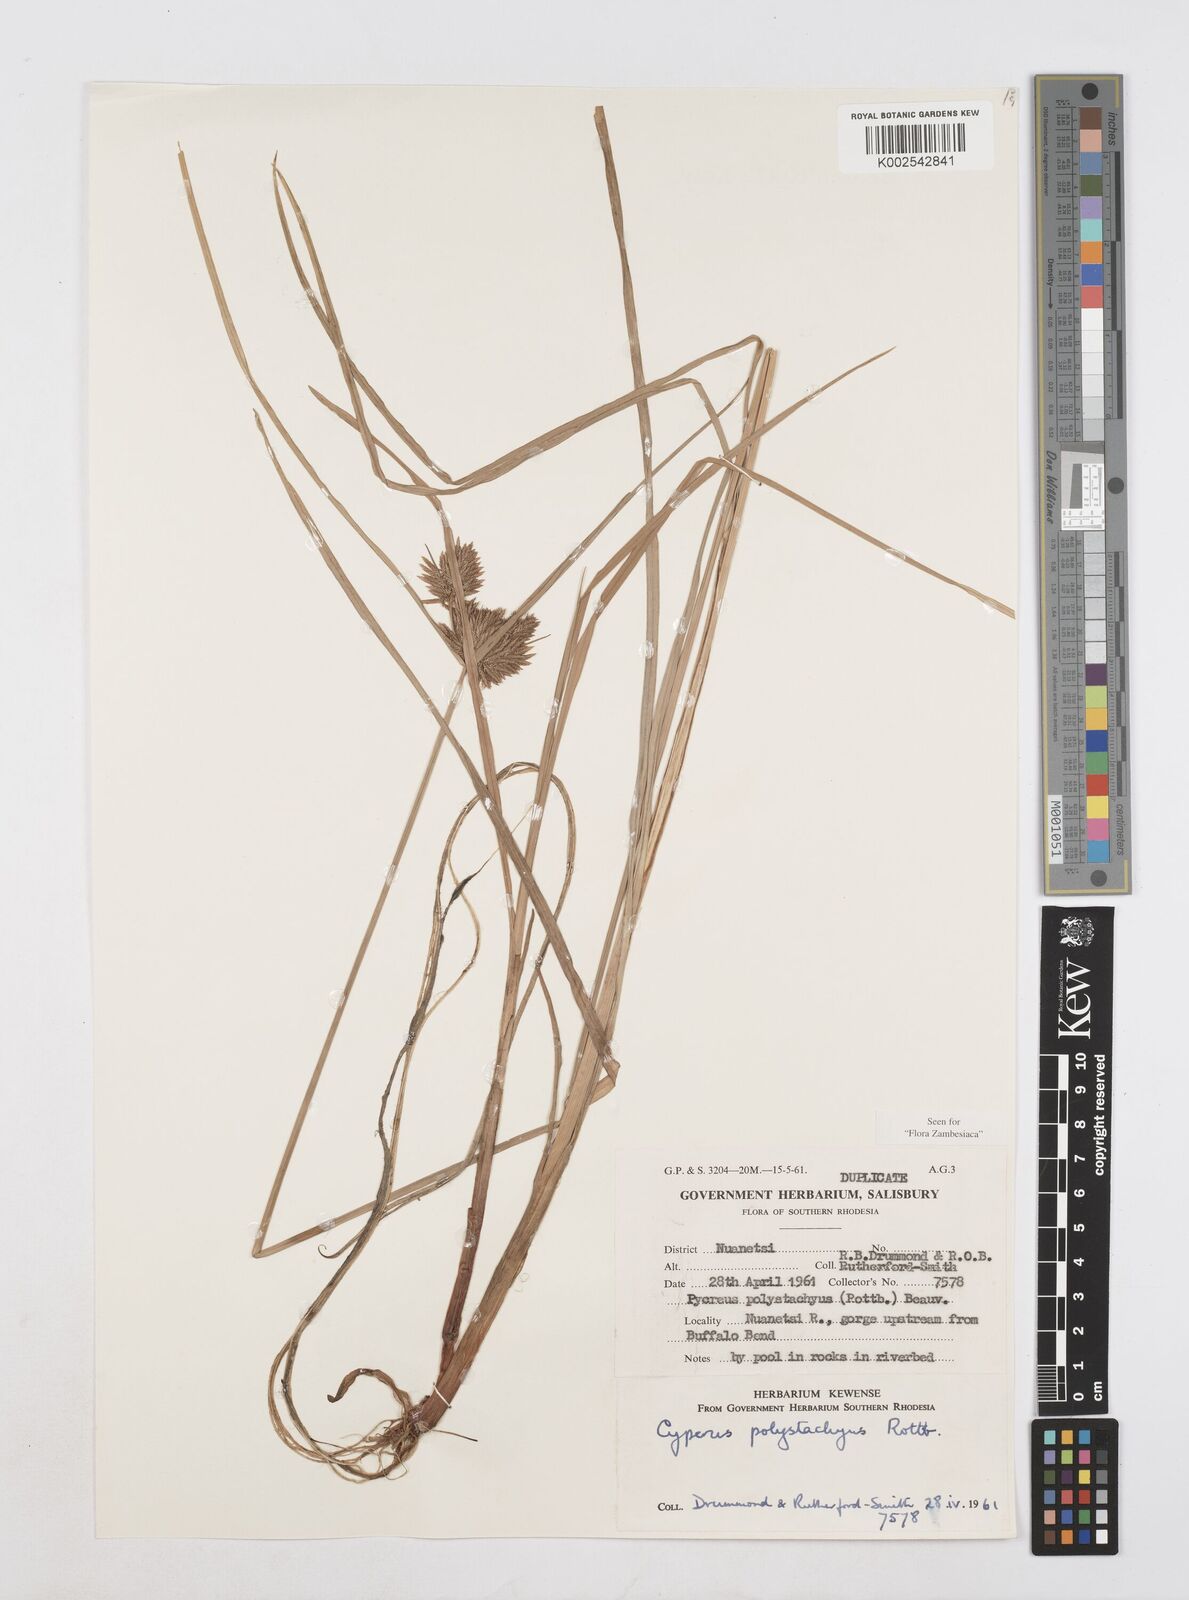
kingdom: Plantae
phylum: Tracheophyta
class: Liliopsida
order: Poales
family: Cyperaceae
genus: Cyperus
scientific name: Cyperus polystachyos
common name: Bunchy flat sedge
